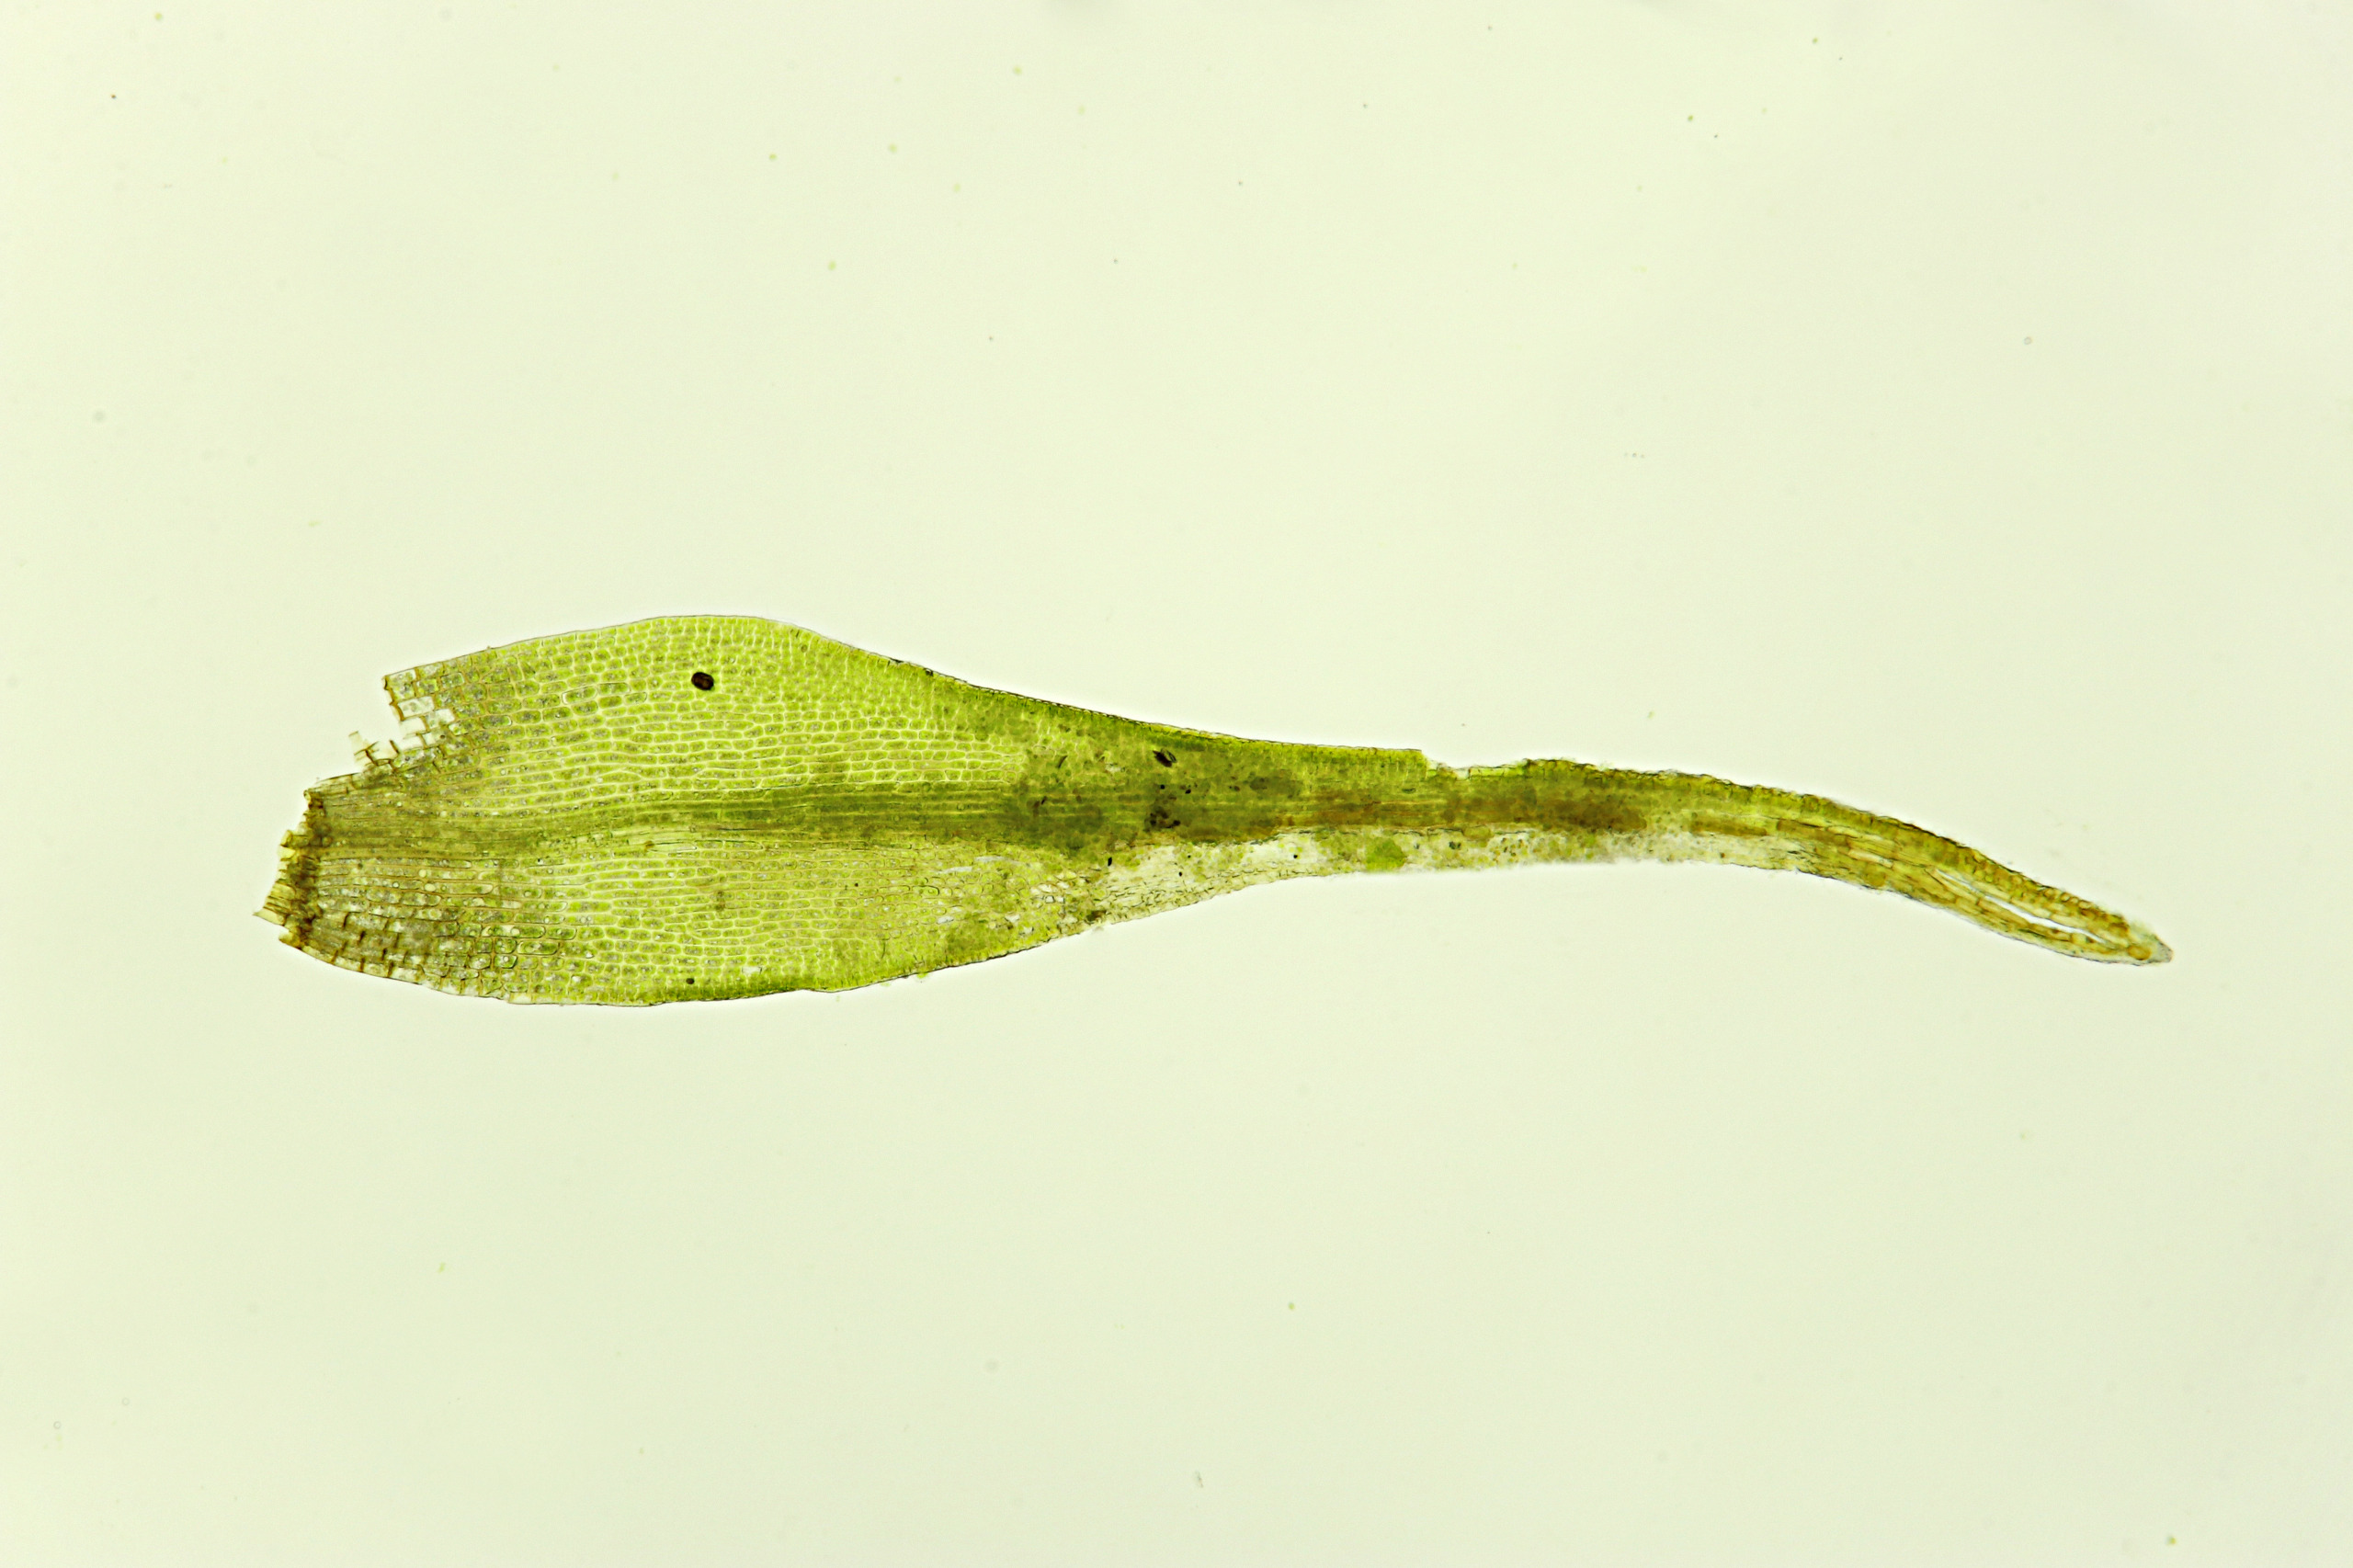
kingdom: Plantae
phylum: Bryophyta
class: Bryopsida
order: Dicranales
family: Rhabdoweisiaceae
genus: Arctoa
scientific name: Arctoa blyttii
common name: Kruset strumamos
